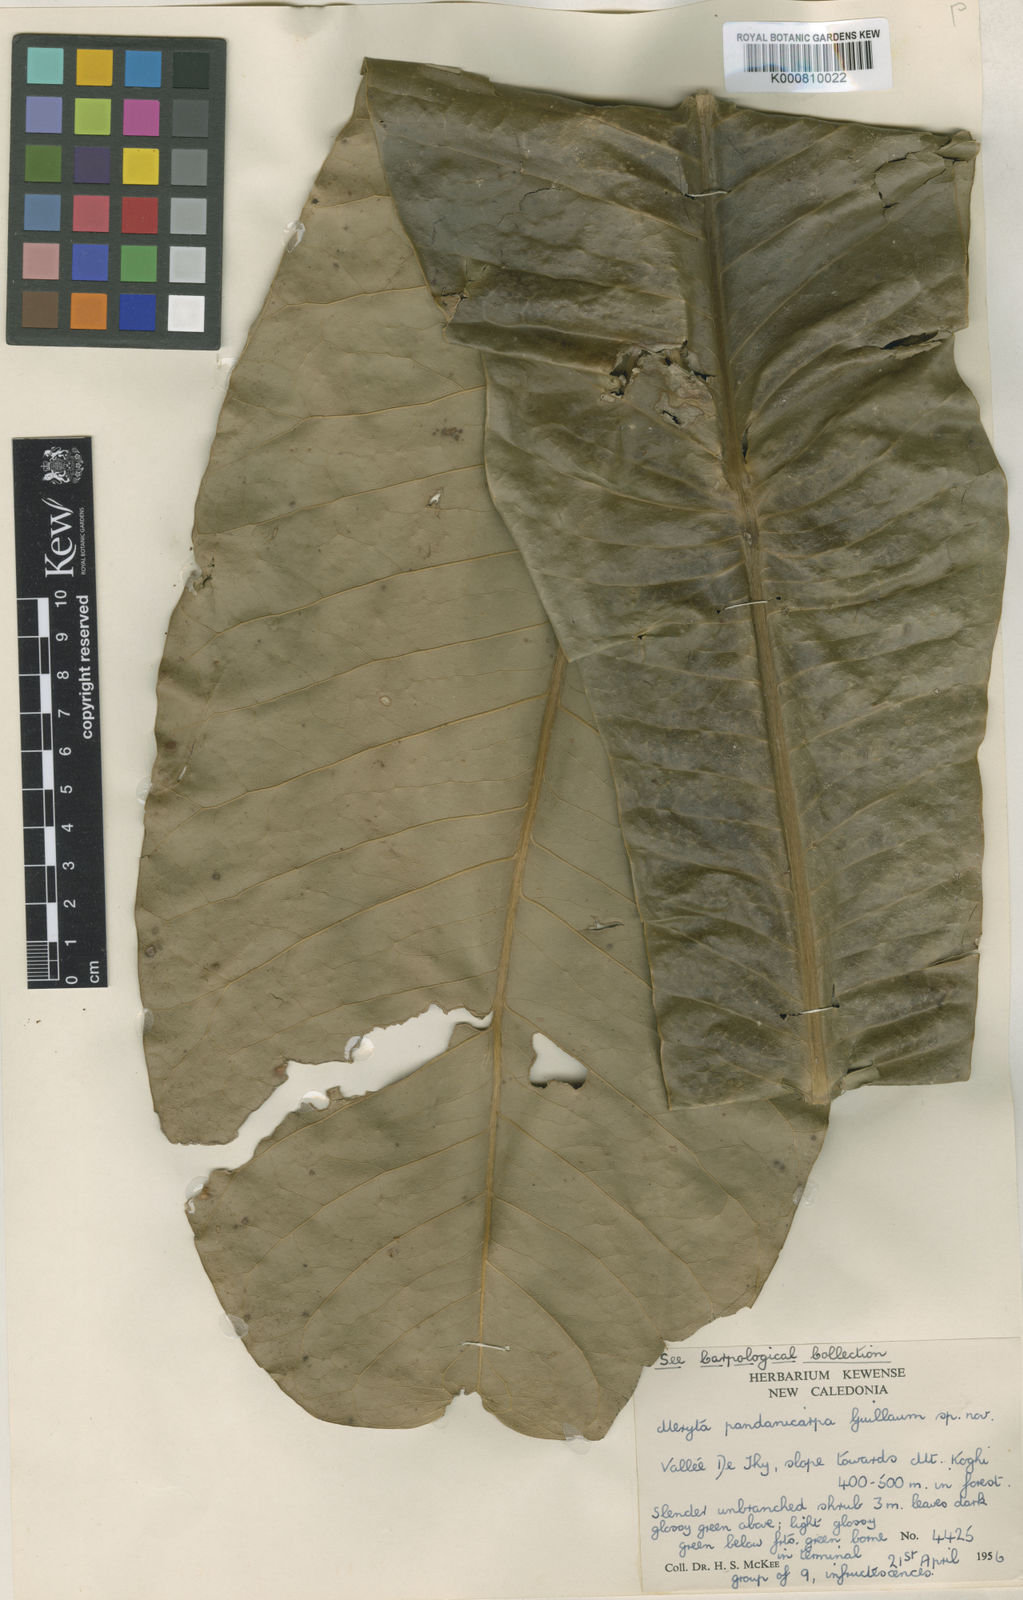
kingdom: Plantae
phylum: Tracheophyta
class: Magnoliopsida
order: Apiales
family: Araliaceae
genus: Meryta
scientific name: Meryta pandanicarpa
